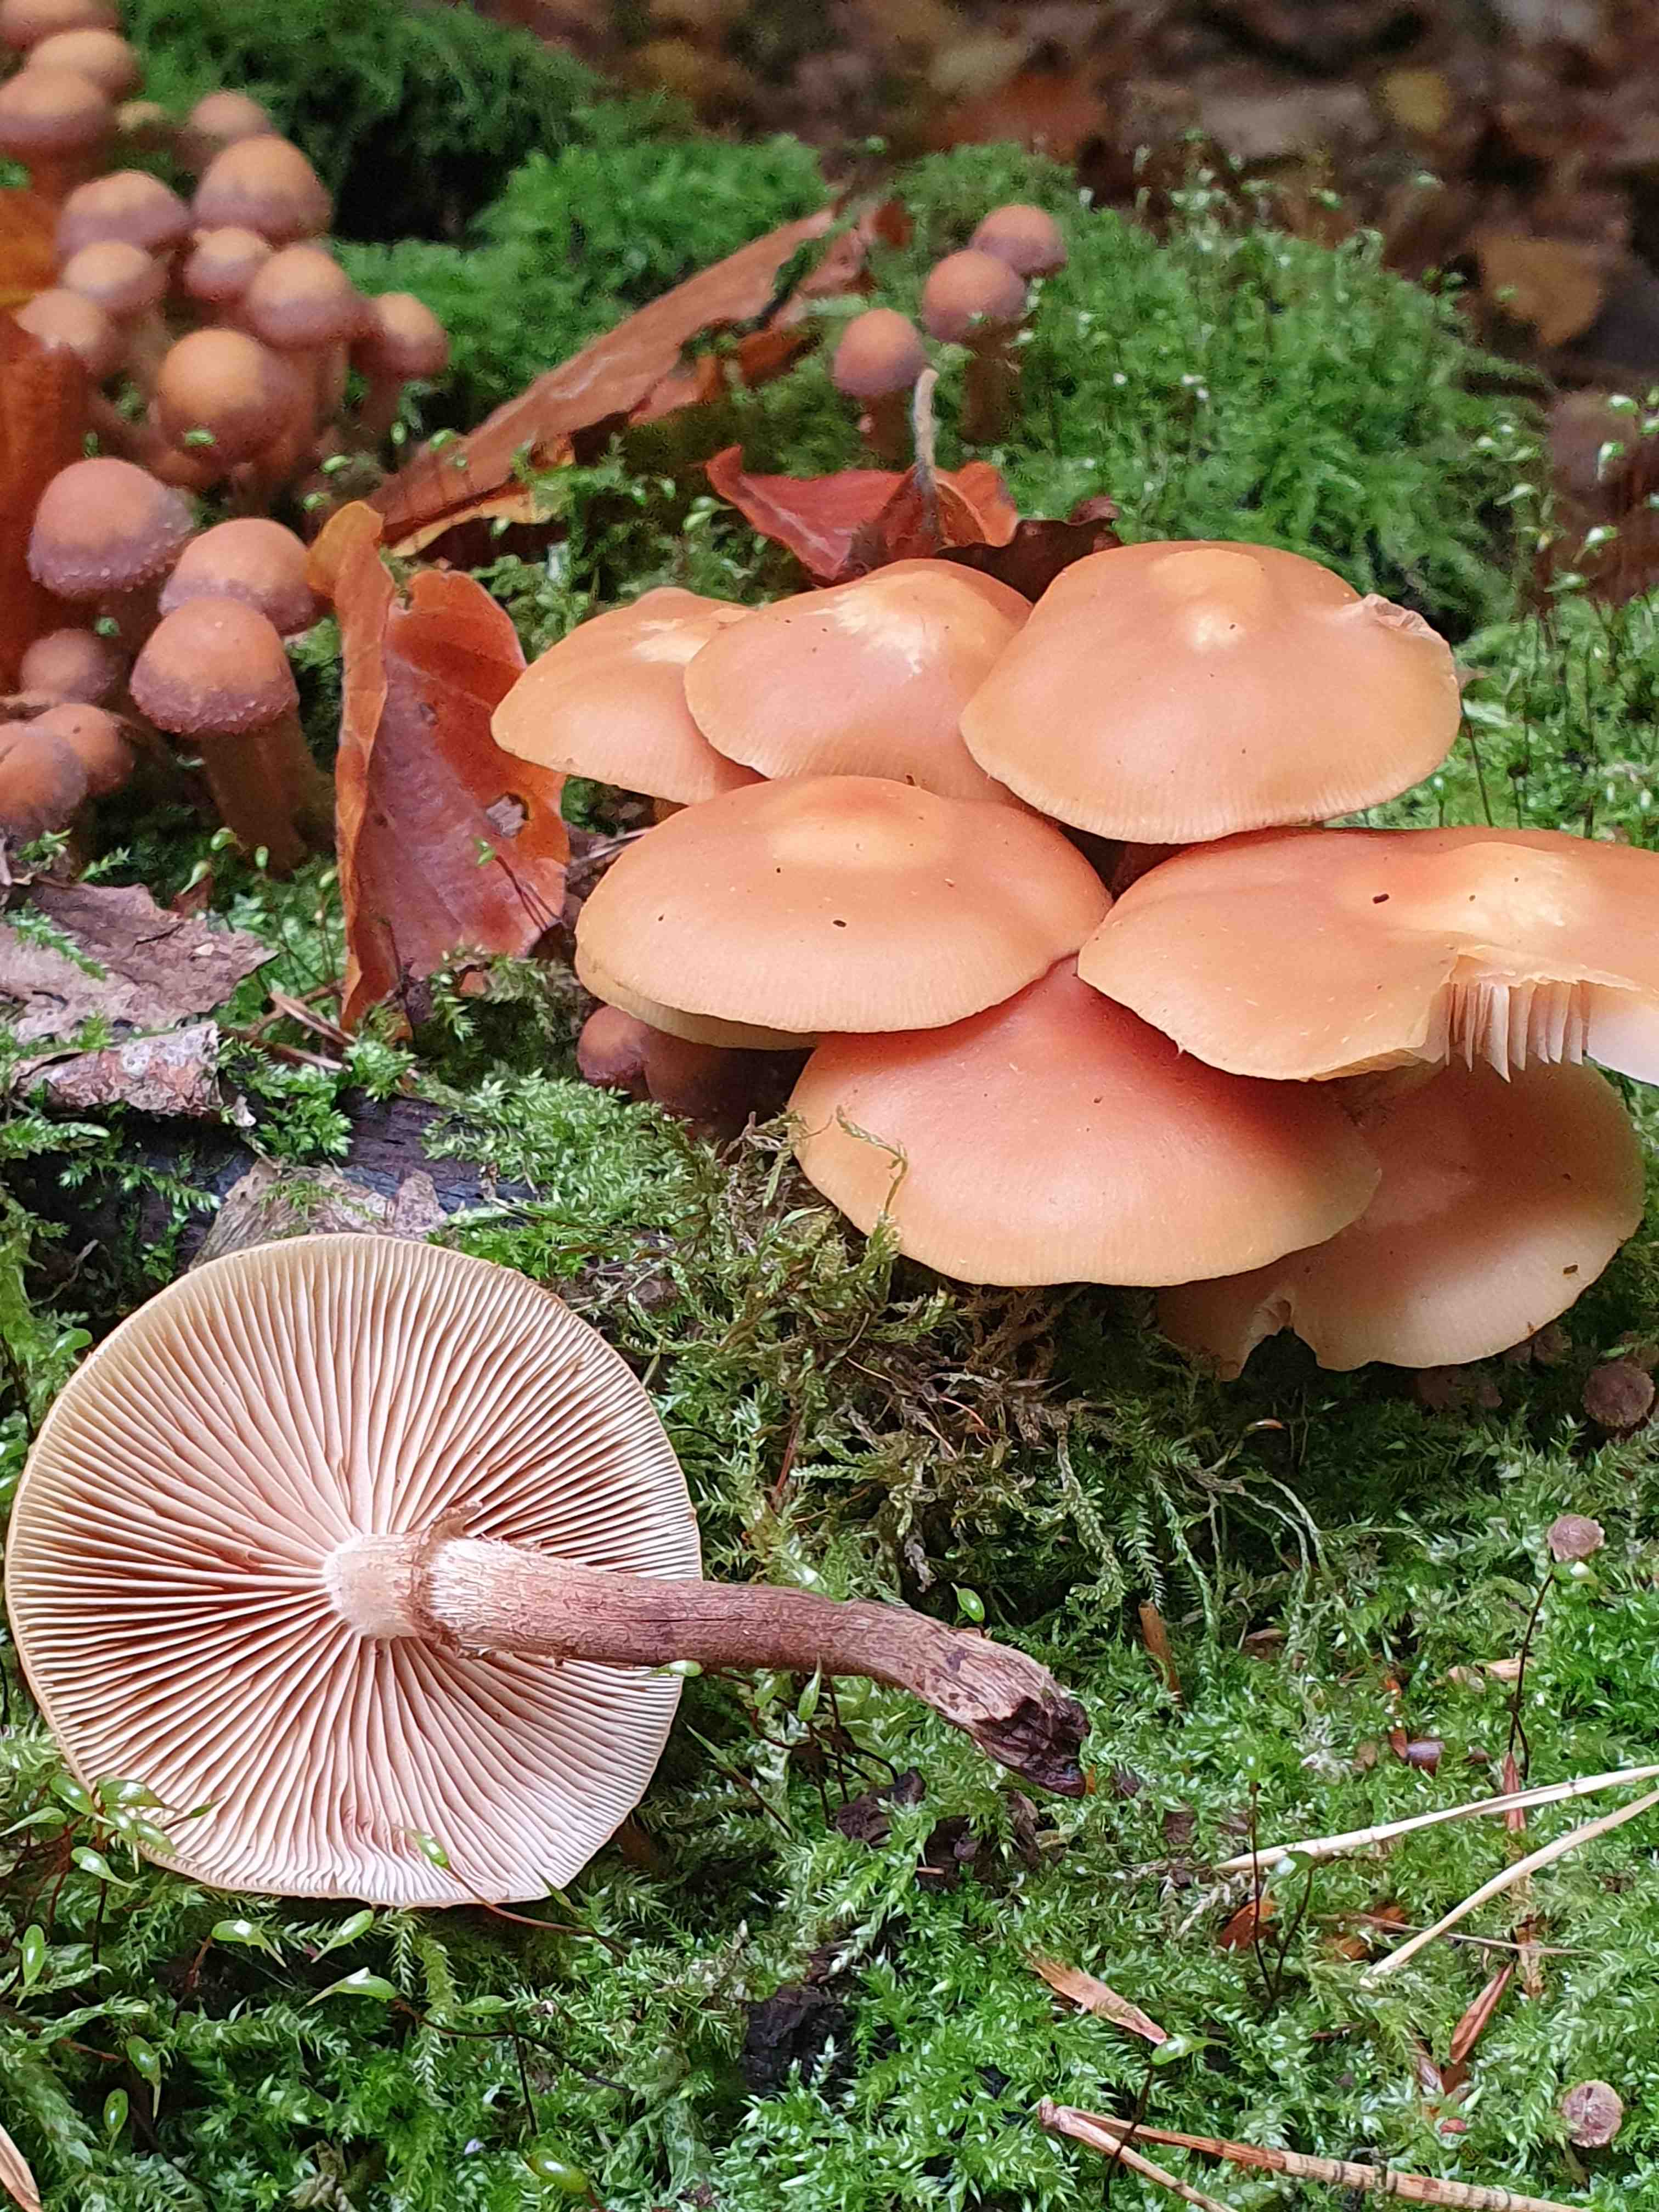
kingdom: Fungi
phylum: Basidiomycota
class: Agaricomycetes
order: Agaricales
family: Strophariaceae
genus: Kuehneromyces
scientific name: Kuehneromyces mutabilis
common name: foranderlig skælhat
